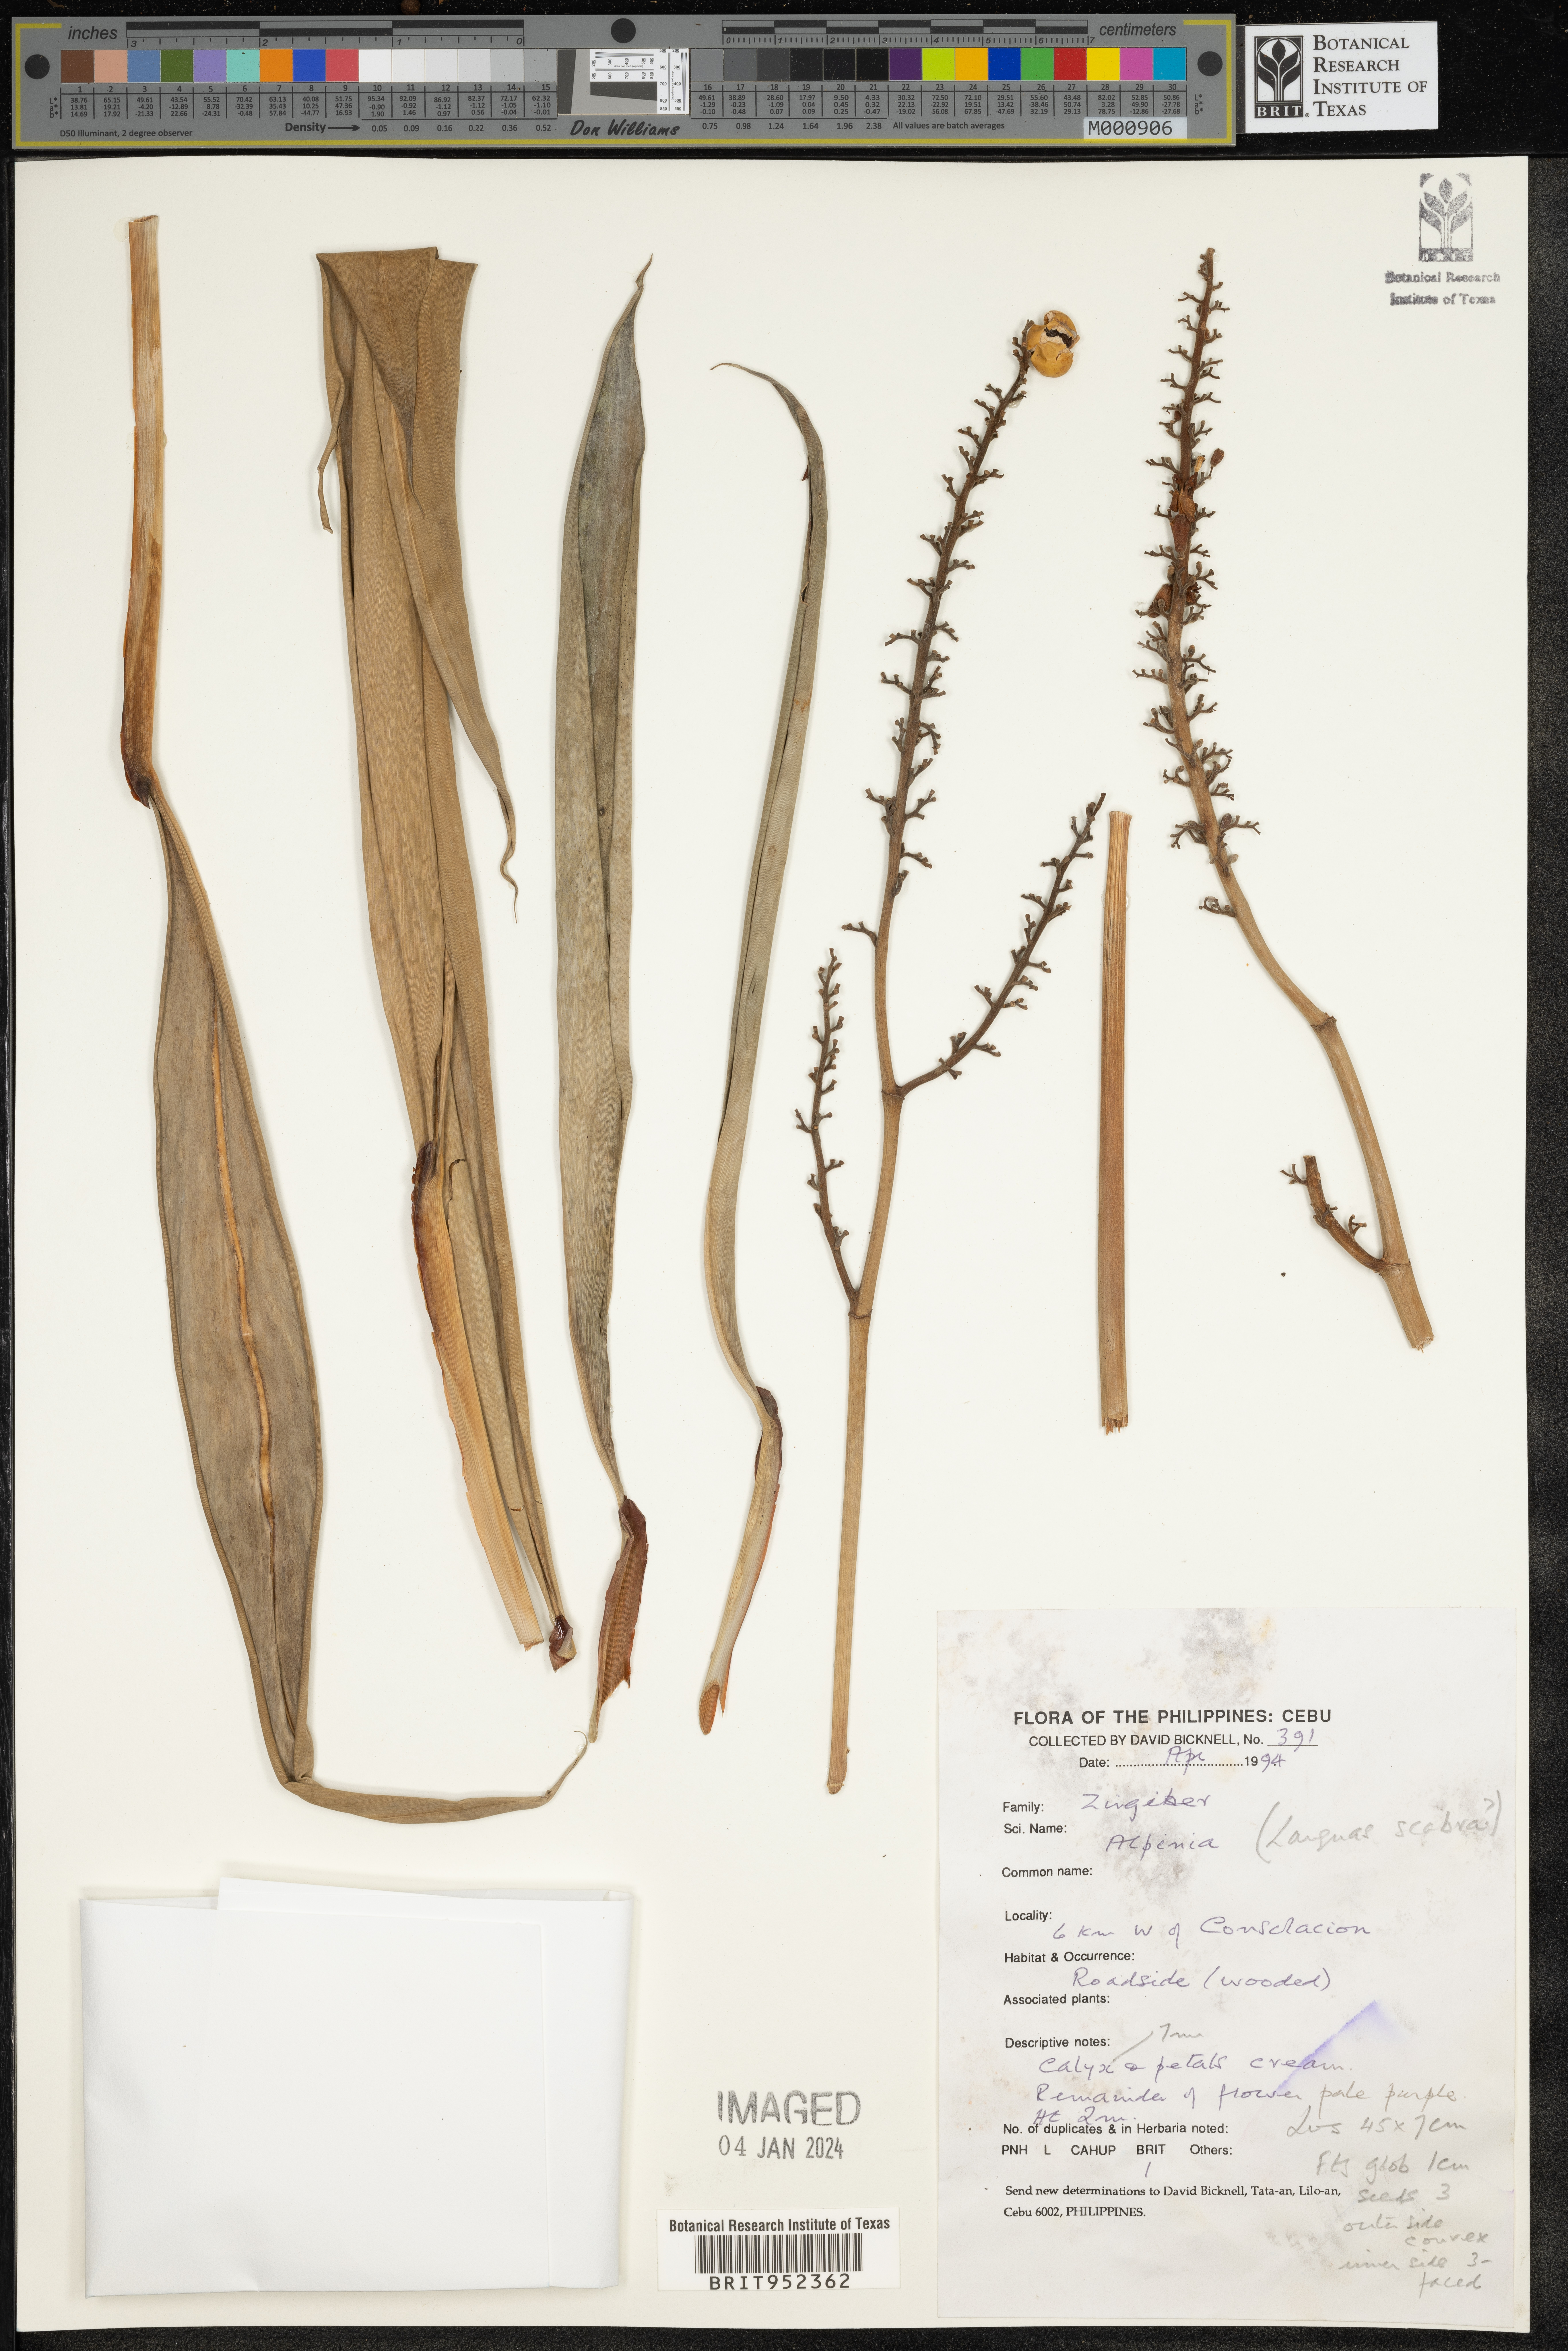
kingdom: Plantae
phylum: Tracheophyta
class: Liliopsida
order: Zingiberales
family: Zingiberaceae
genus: Alpinia
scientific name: Alpinia
